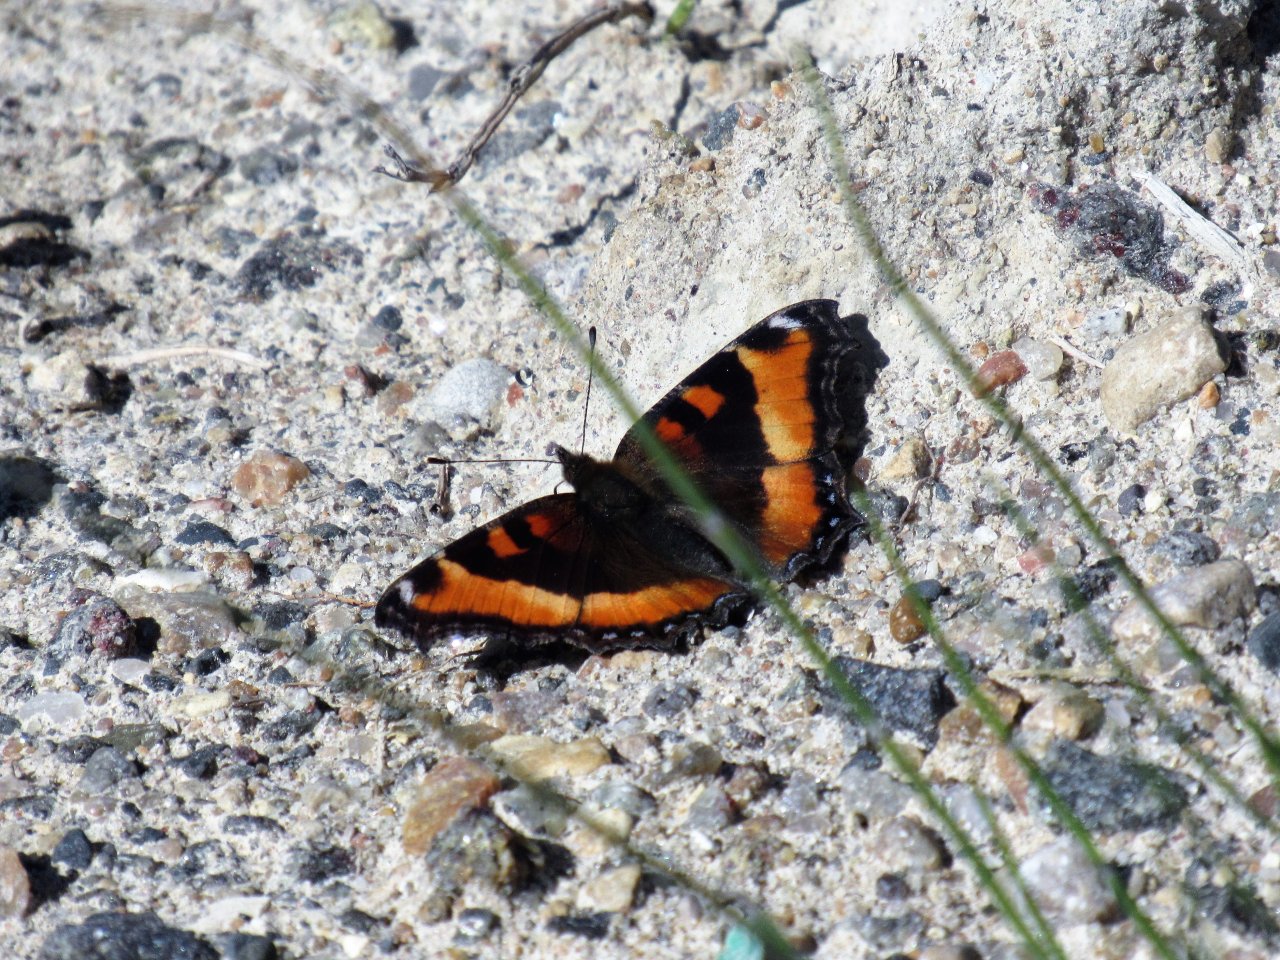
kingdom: Animalia
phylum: Arthropoda
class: Insecta
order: Lepidoptera
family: Nymphalidae
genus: Aglais
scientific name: Aglais milberti
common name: Milbert's Tortoiseshell
